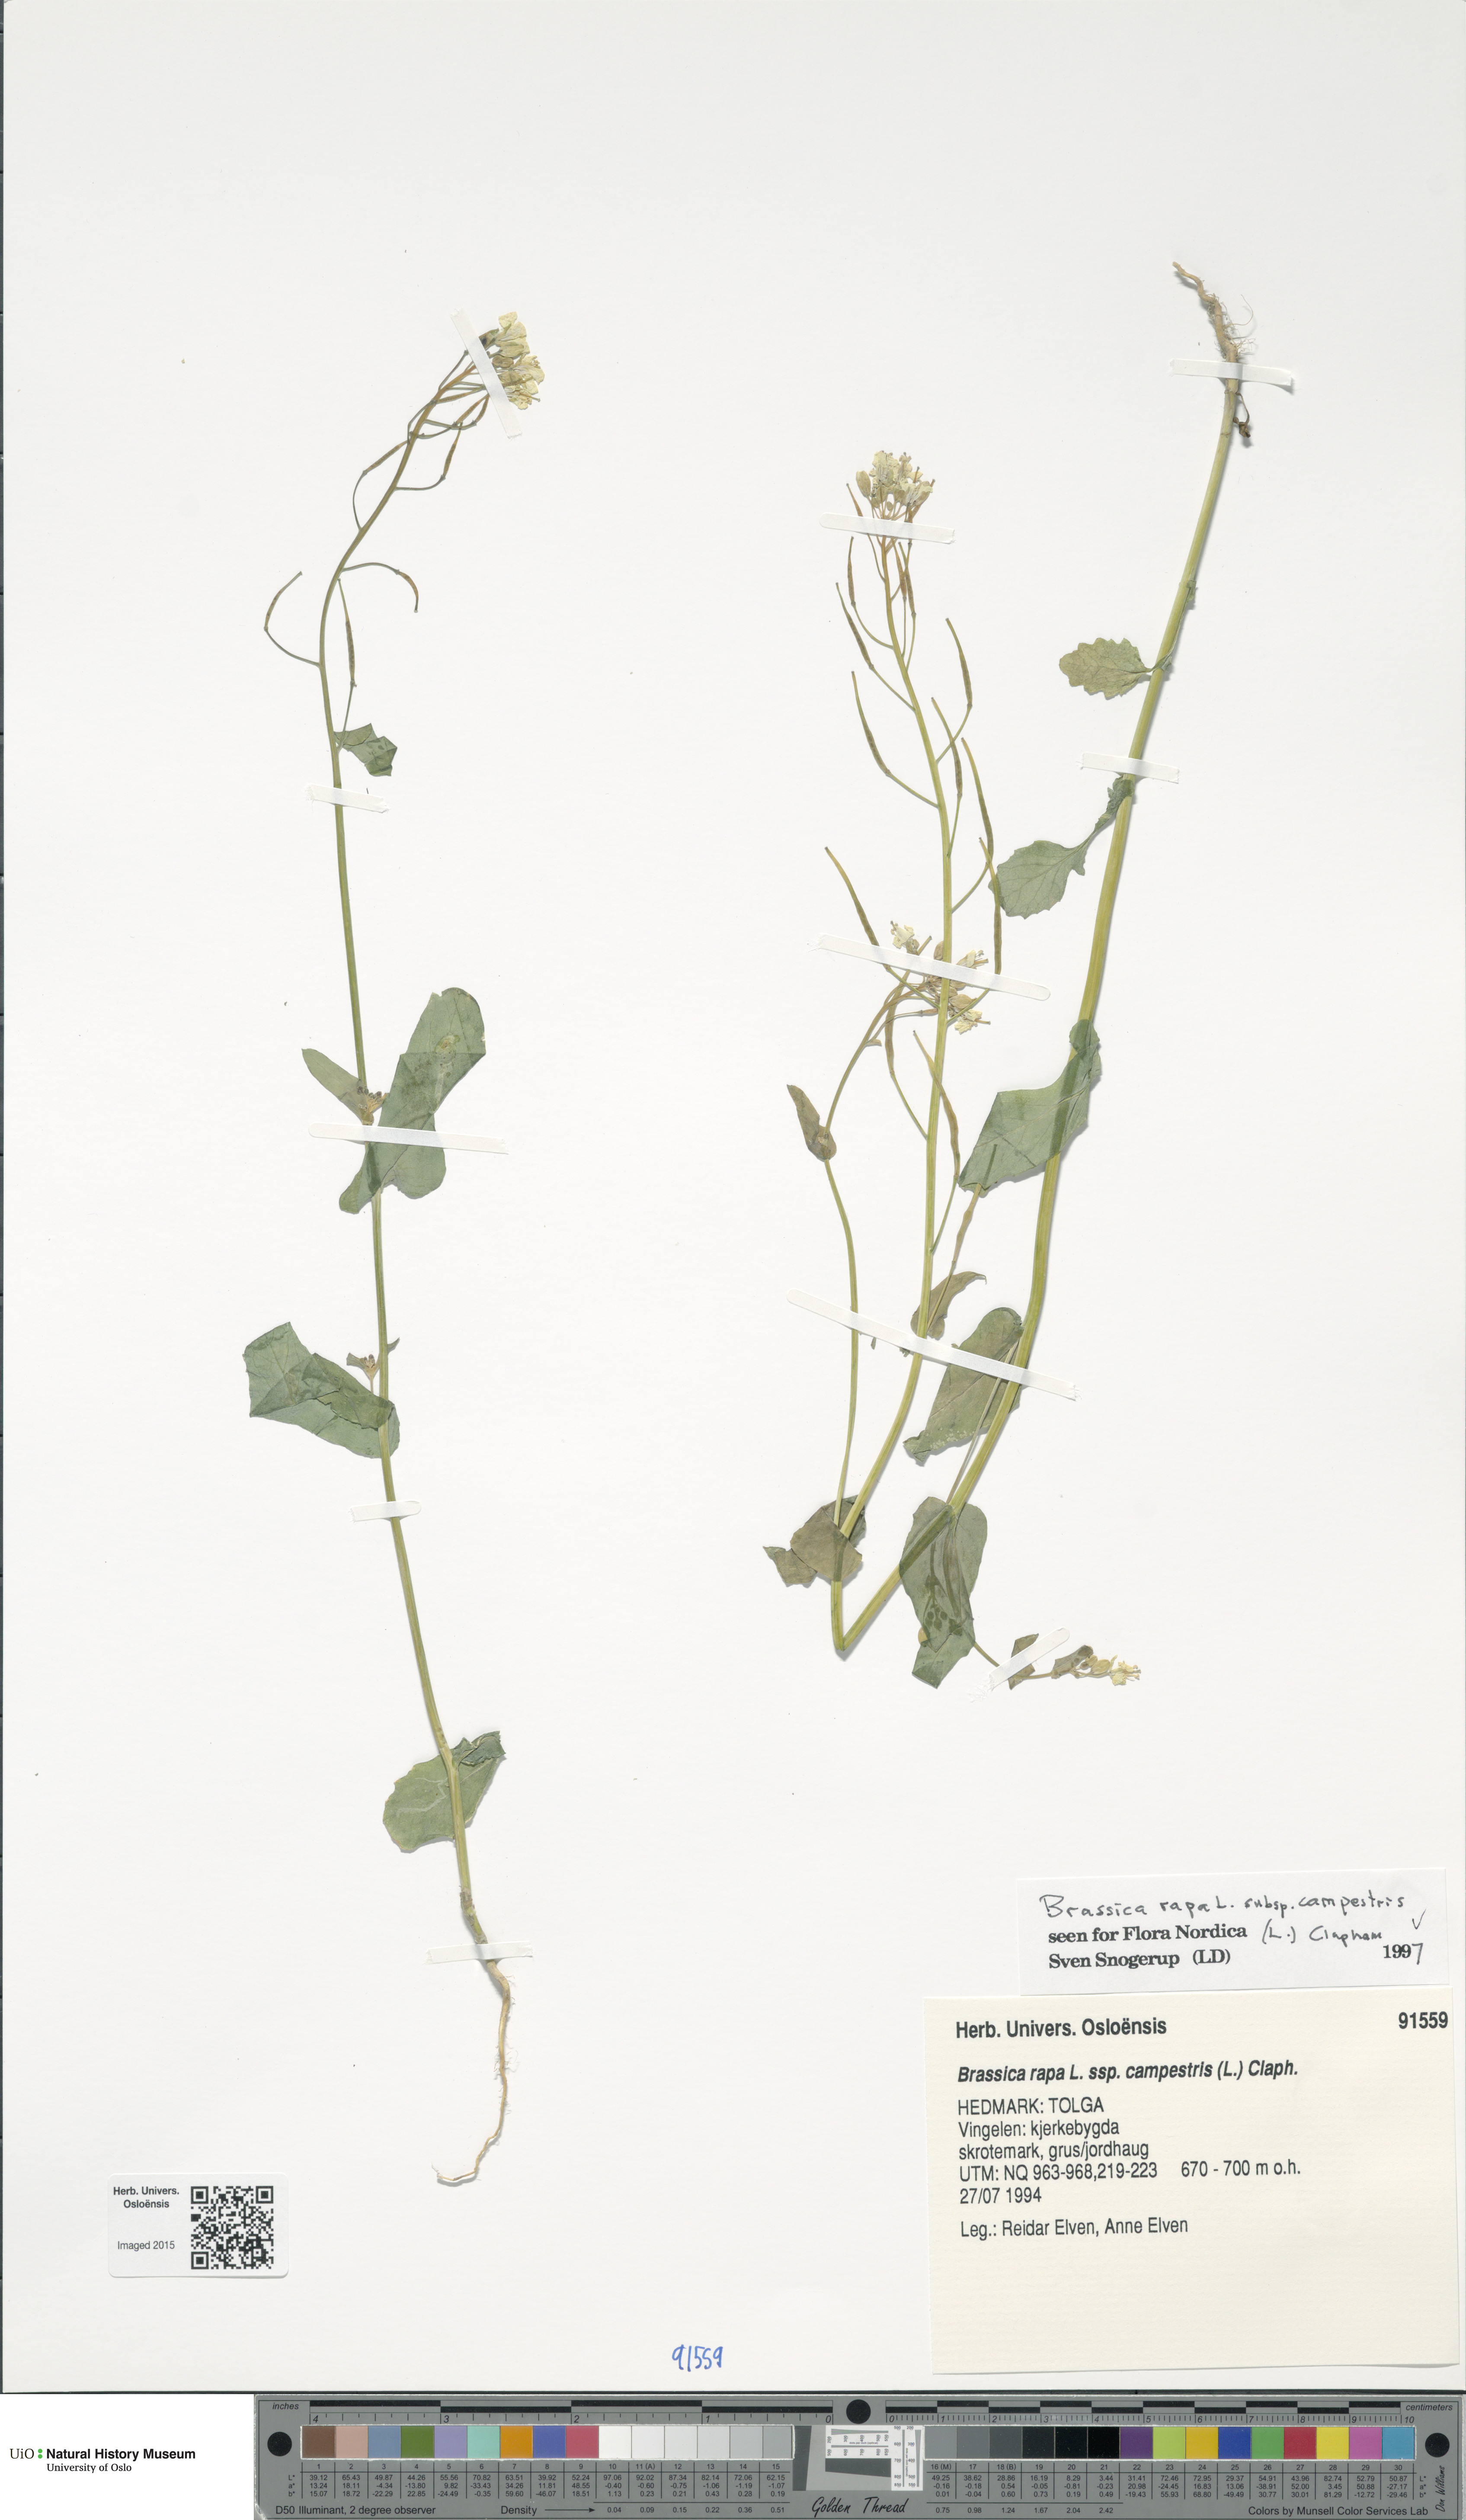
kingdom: Plantae
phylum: Tracheophyta
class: Magnoliopsida
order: Brassicales
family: Brassicaceae
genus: Brassica
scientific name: Brassica rapa
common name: Field mustard
